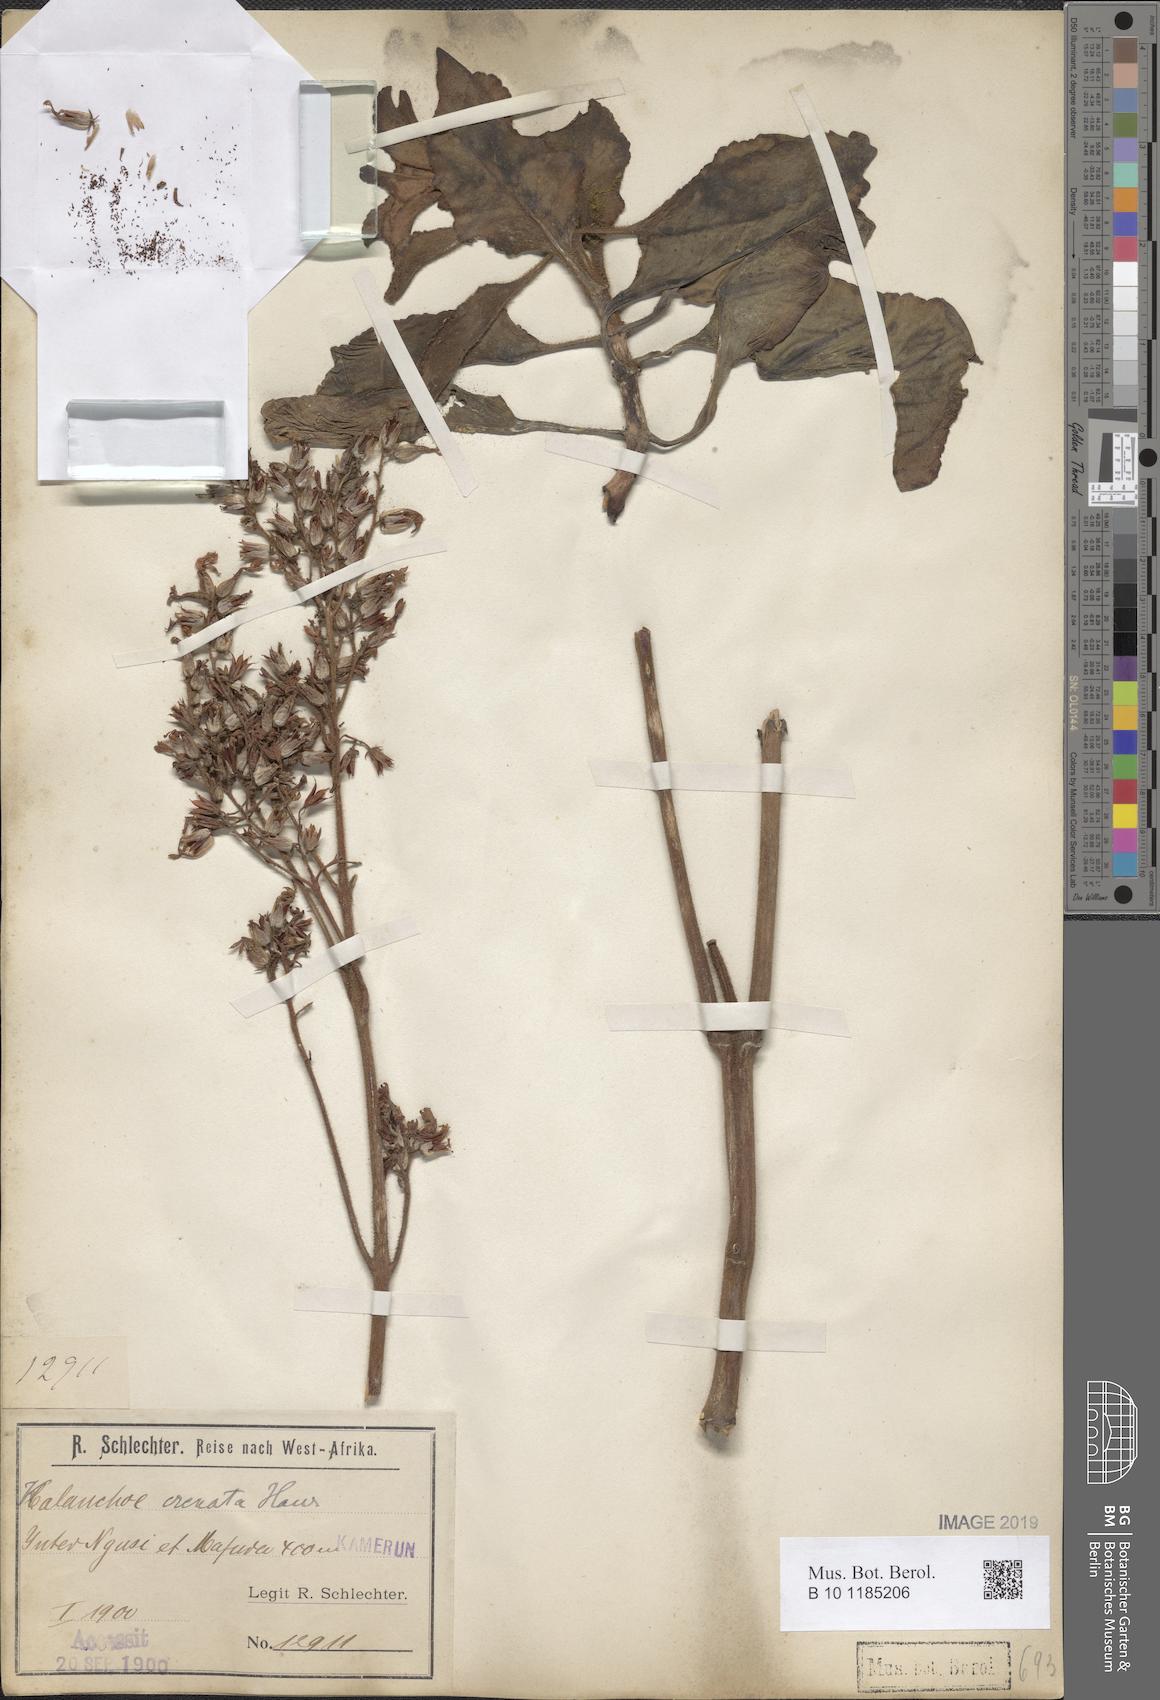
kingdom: Plantae
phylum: Tracheophyta
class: Magnoliopsida
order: Saxifragales
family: Crassulaceae
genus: Kalanchoe
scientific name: Kalanchoe crenata
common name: Neverdie
